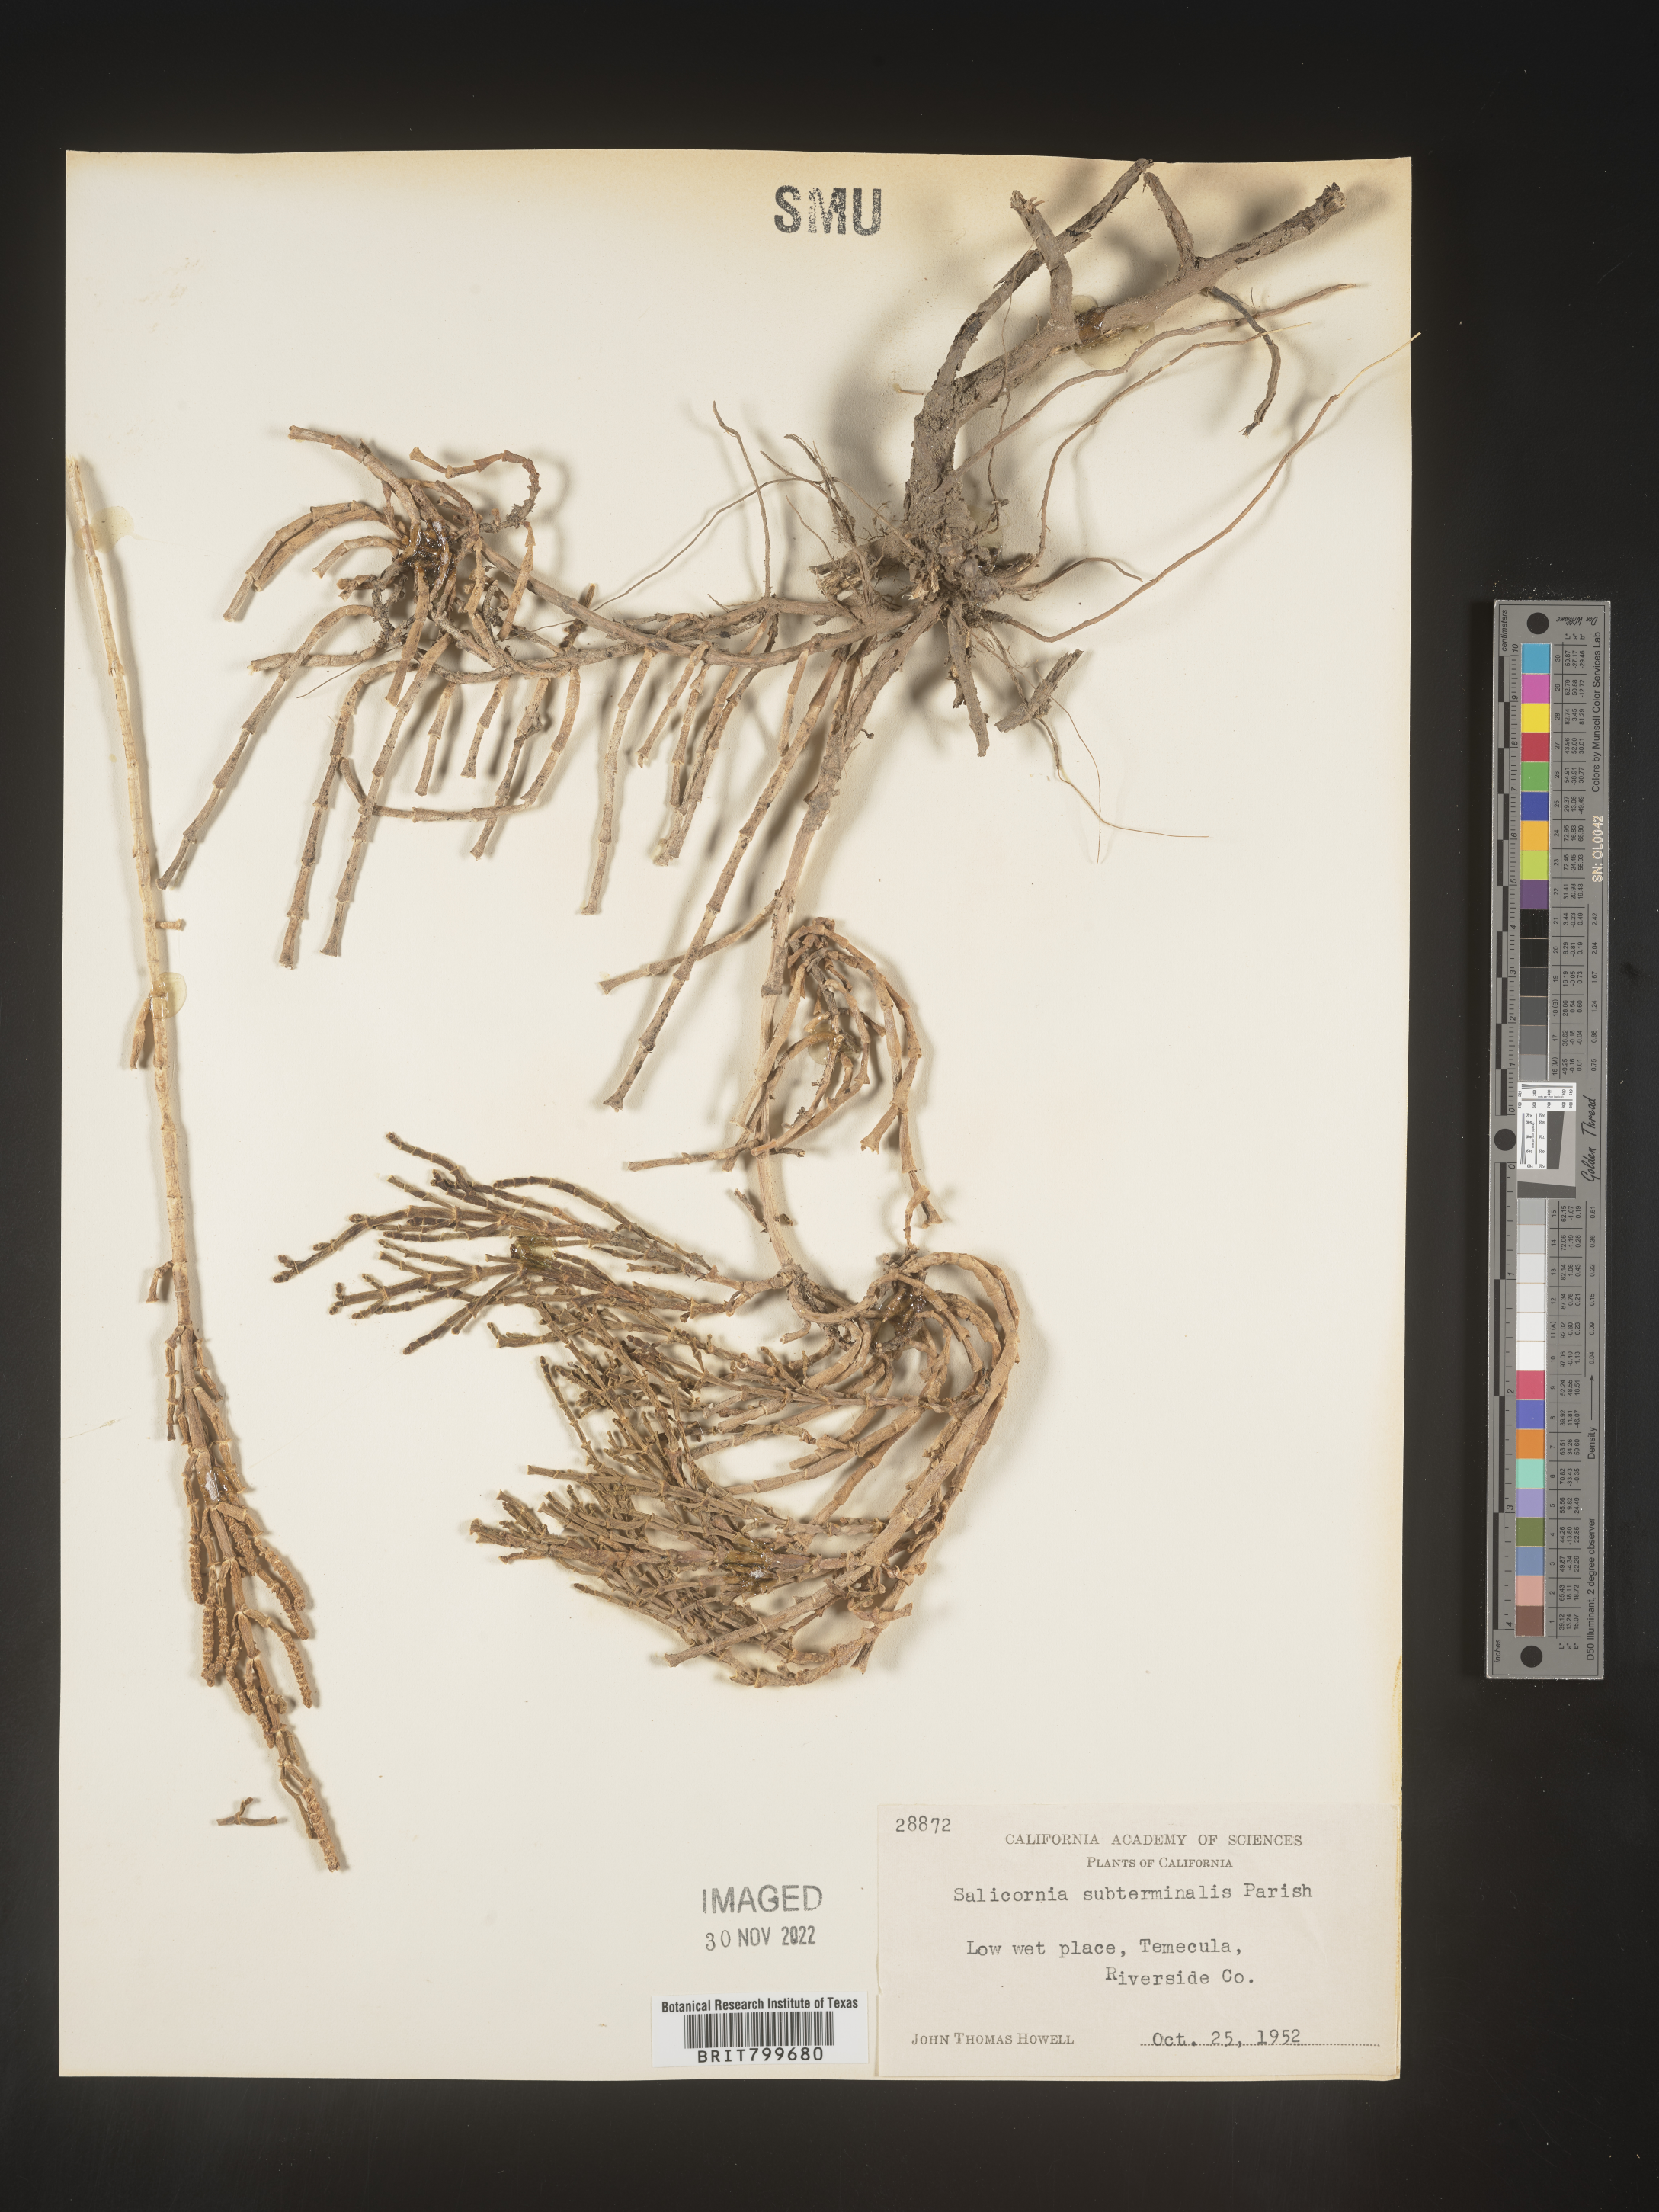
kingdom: Plantae
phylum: Tracheophyta
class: Magnoliopsida
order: Caryophyllales
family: Amaranthaceae
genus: Salicornia
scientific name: Salicornia
